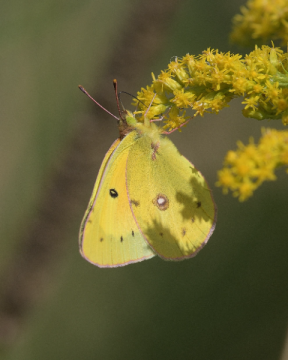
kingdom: Animalia
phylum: Arthropoda
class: Insecta
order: Lepidoptera
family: Pieridae
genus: Colias
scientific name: Colias eurytheme
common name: Orange Sulphur
